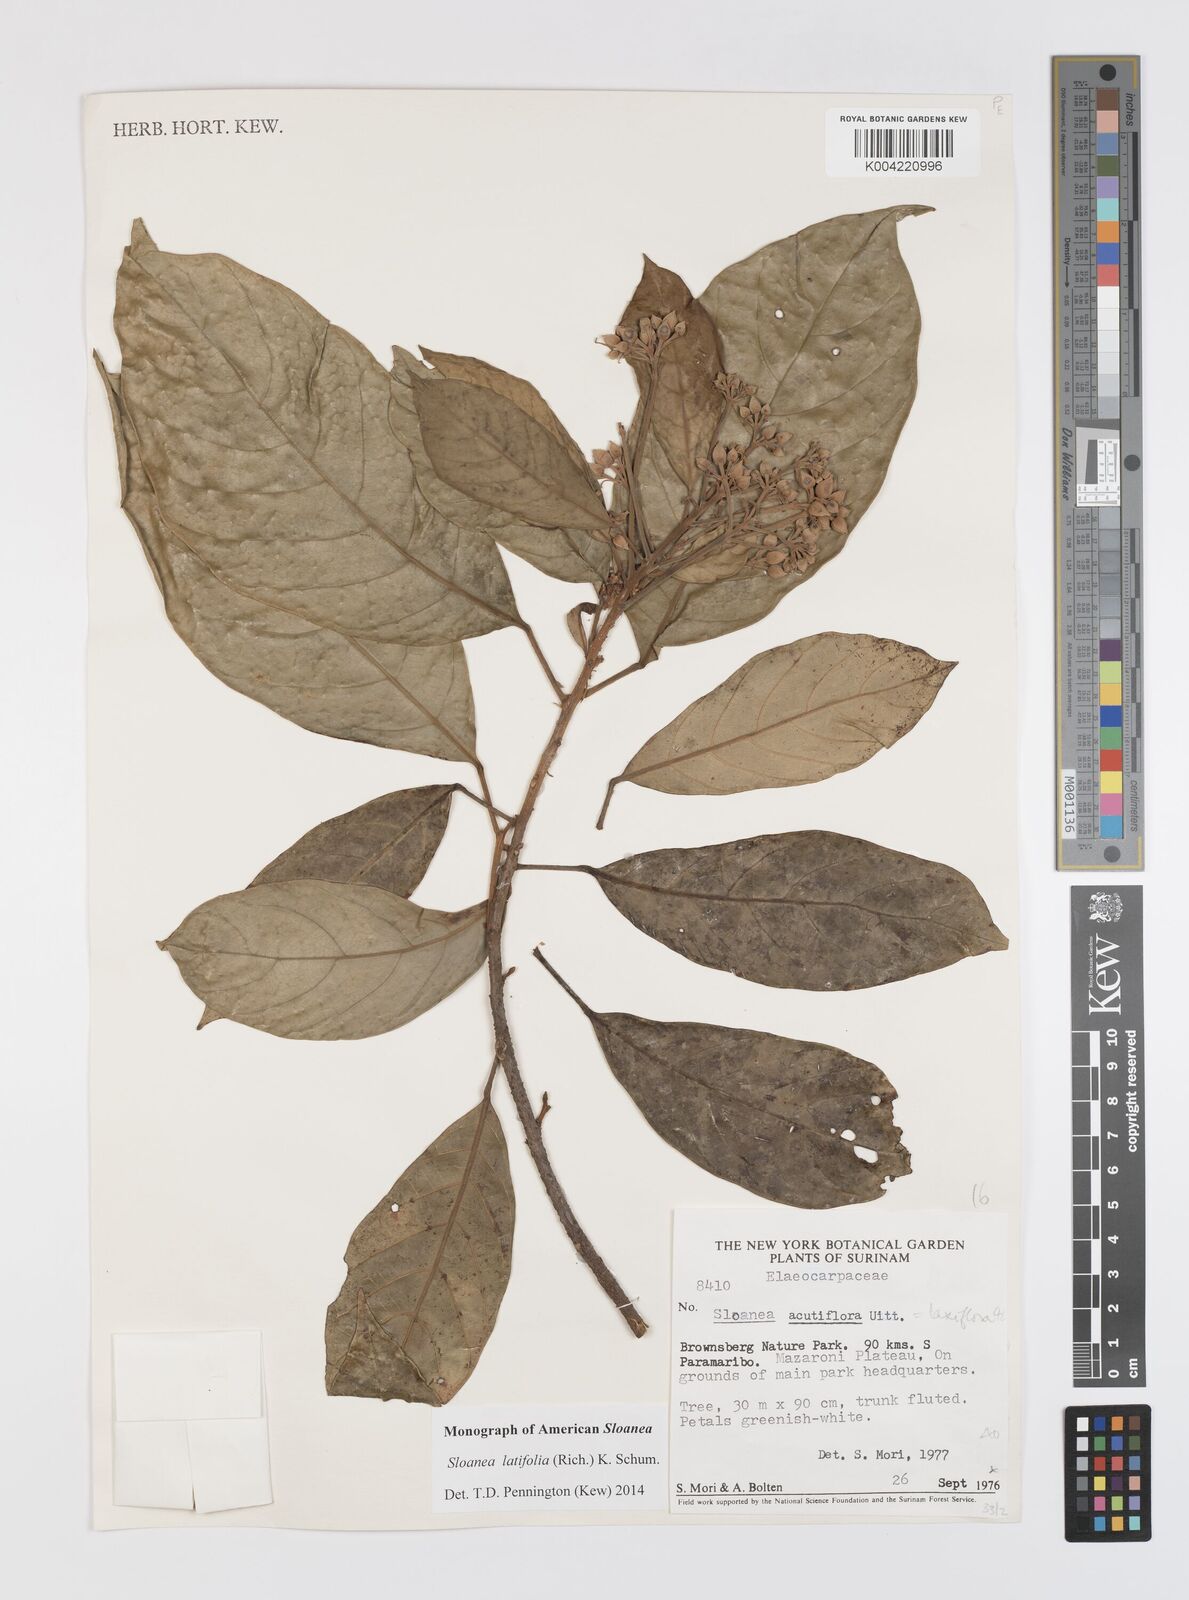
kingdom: Plantae
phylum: Tracheophyta
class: Magnoliopsida
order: Oxalidales
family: Elaeocarpaceae
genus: Sloanea
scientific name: Sloanea latifolia
